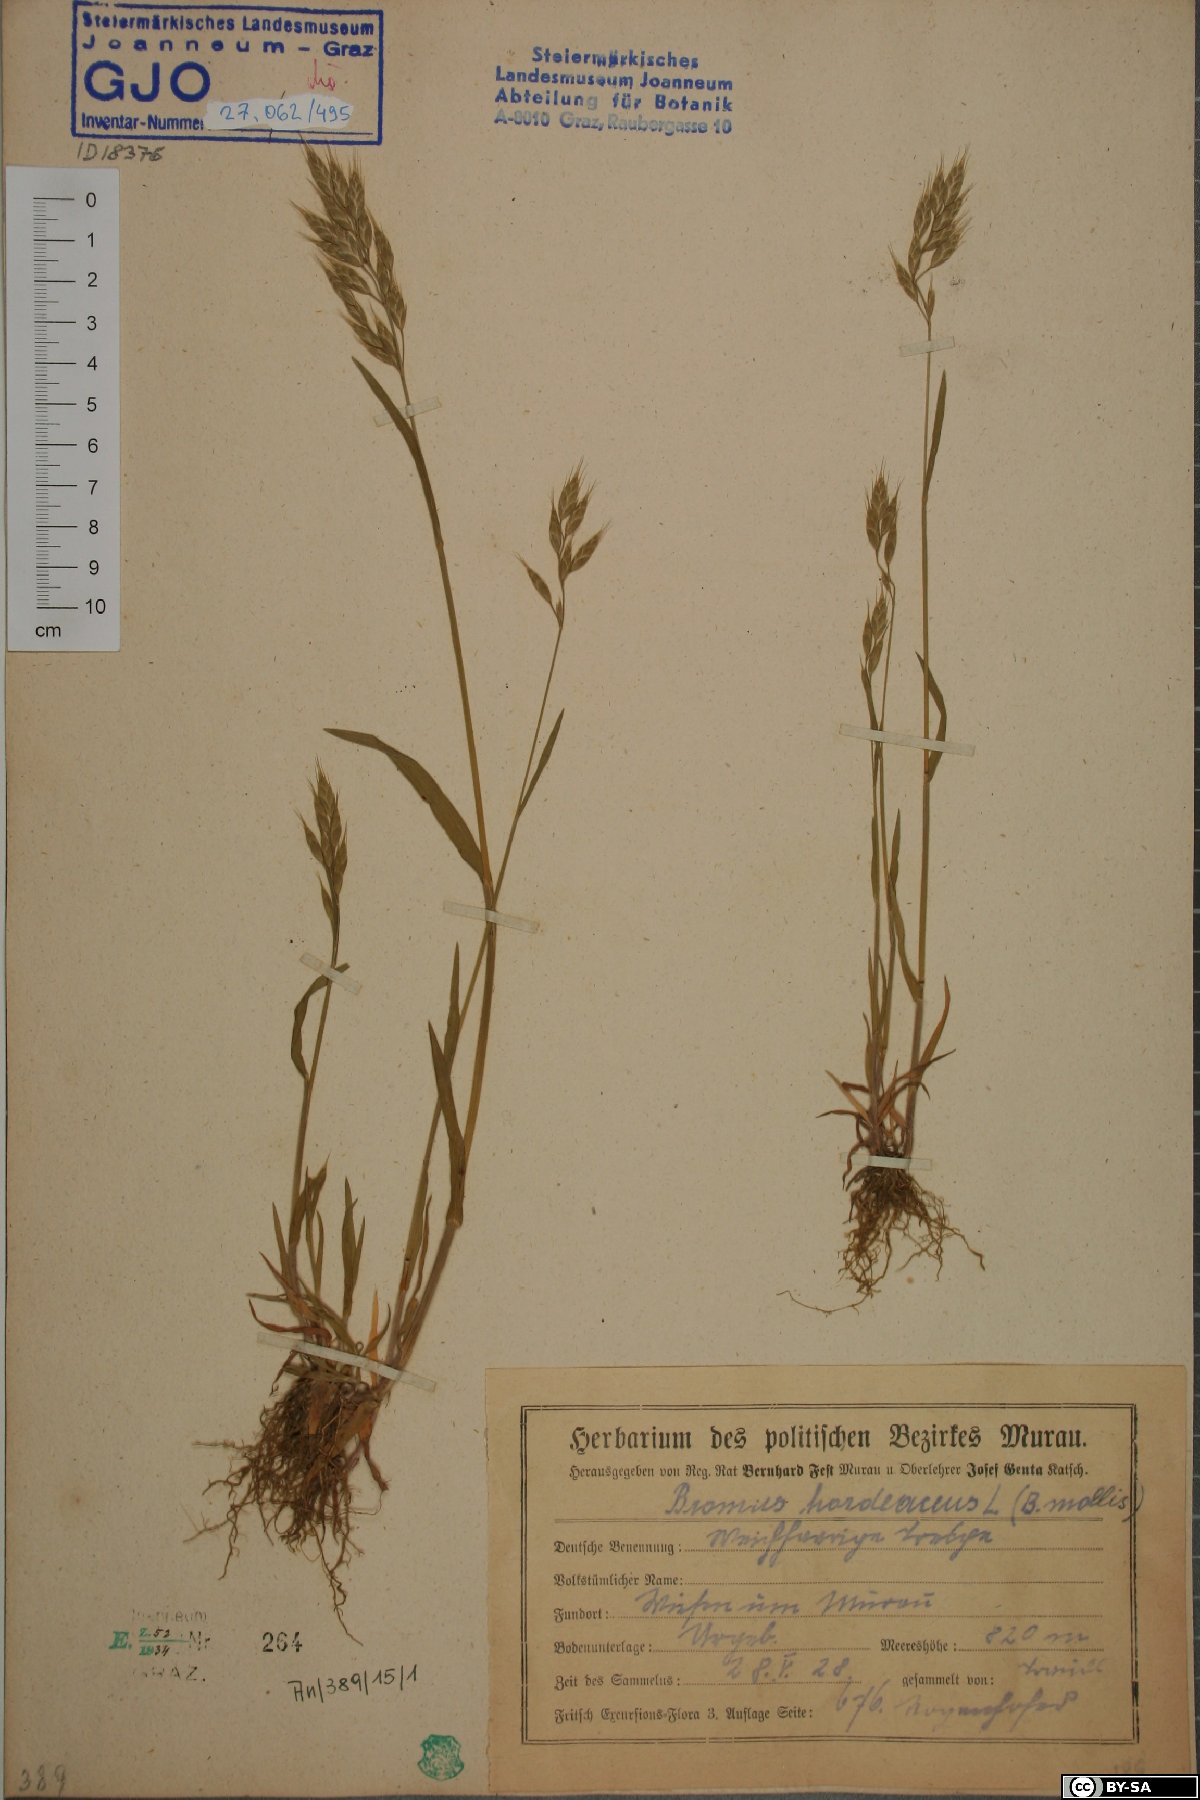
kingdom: Plantae
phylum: Tracheophyta
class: Liliopsida
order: Poales
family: Poaceae
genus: Bromus
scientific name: Bromus hordeaceus
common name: Soft brome
